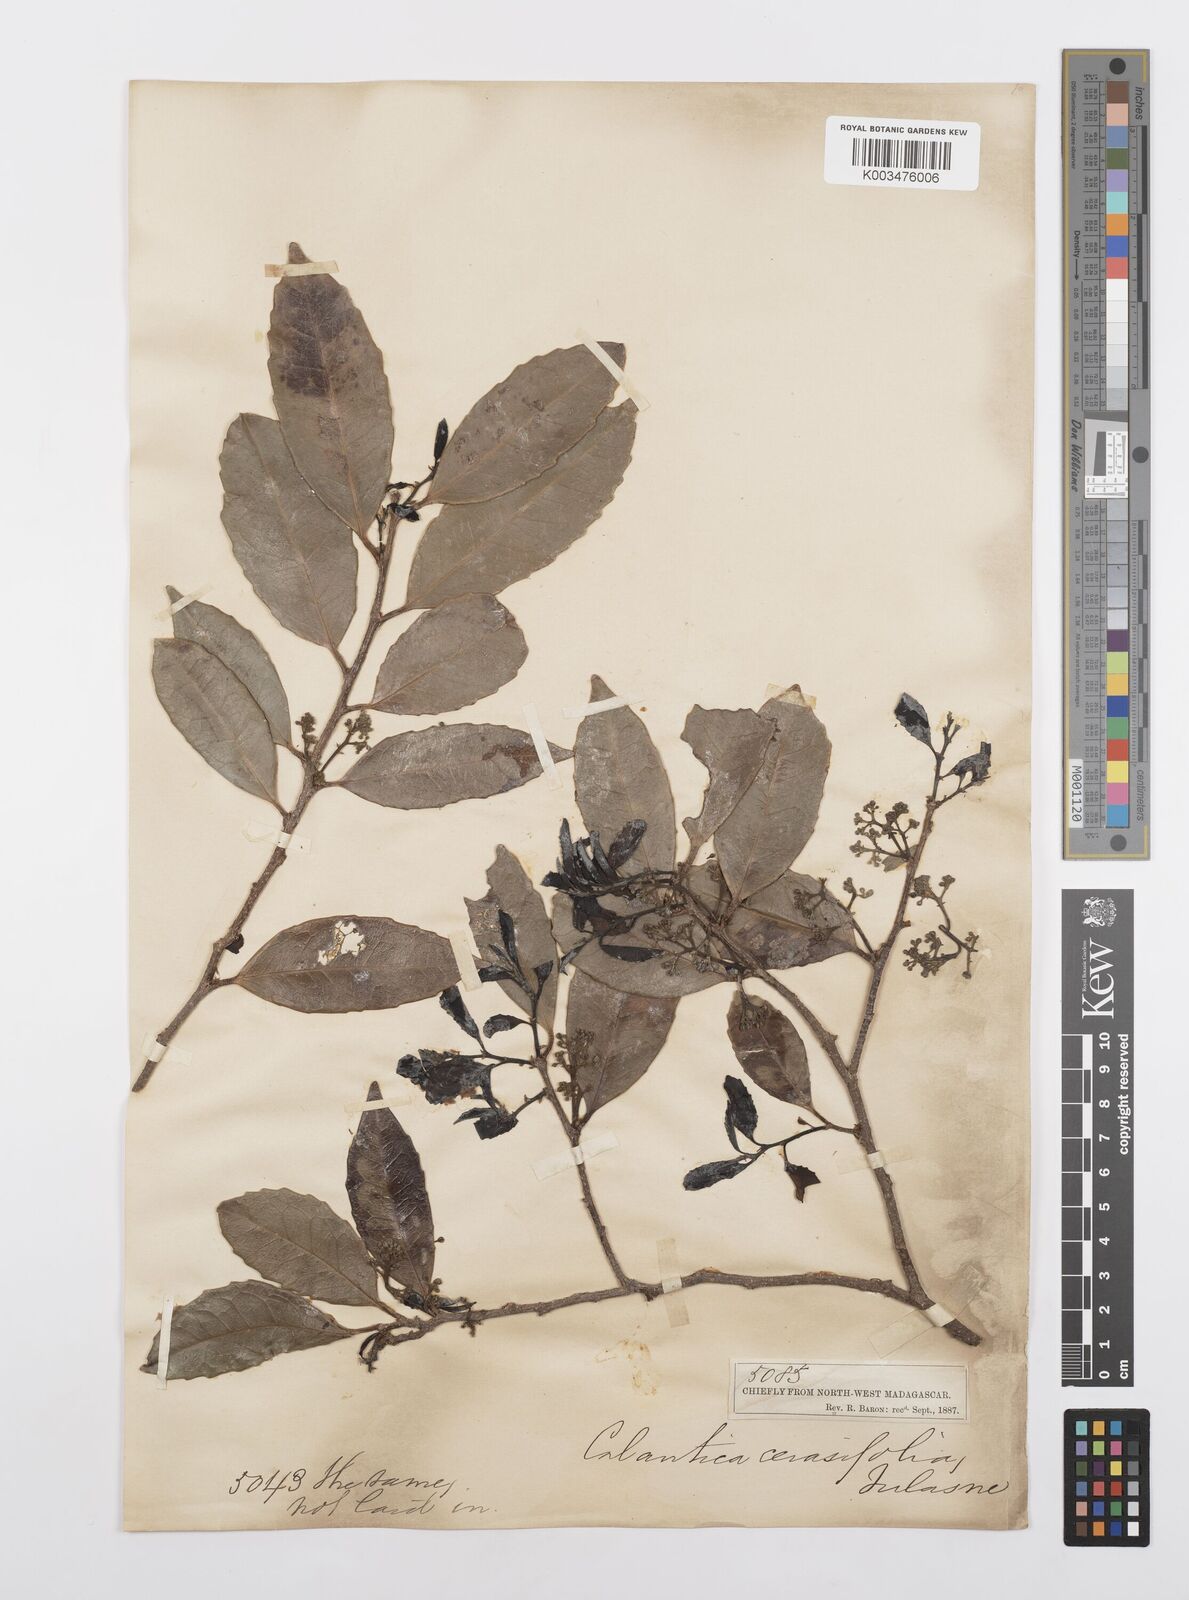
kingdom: Plantae
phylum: Tracheophyta
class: Magnoliopsida
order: Malpighiales
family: Salicaceae
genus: Calantica
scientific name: Calantica cerasifolia
